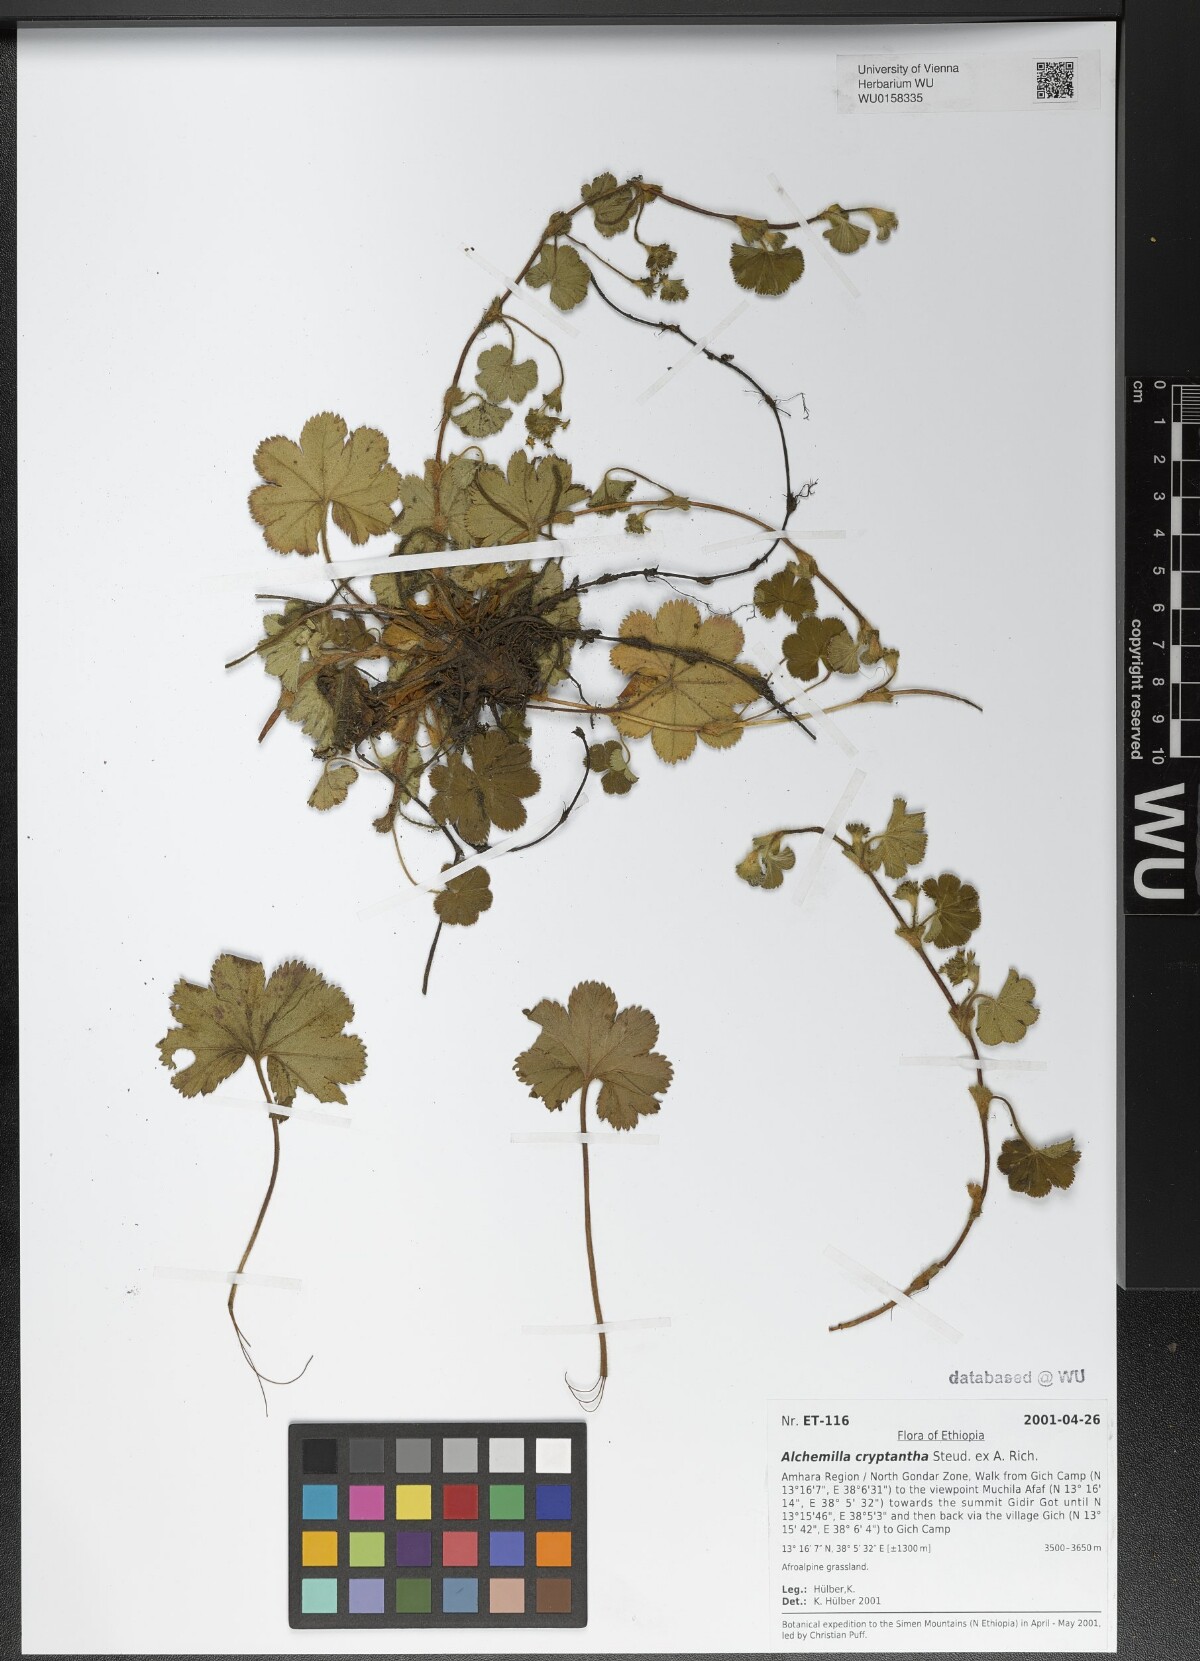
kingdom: Plantae
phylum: Tracheophyta
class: Magnoliopsida
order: Rosales
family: Rosaceae
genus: Alchemilla
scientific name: Alchemilla cryptantha
